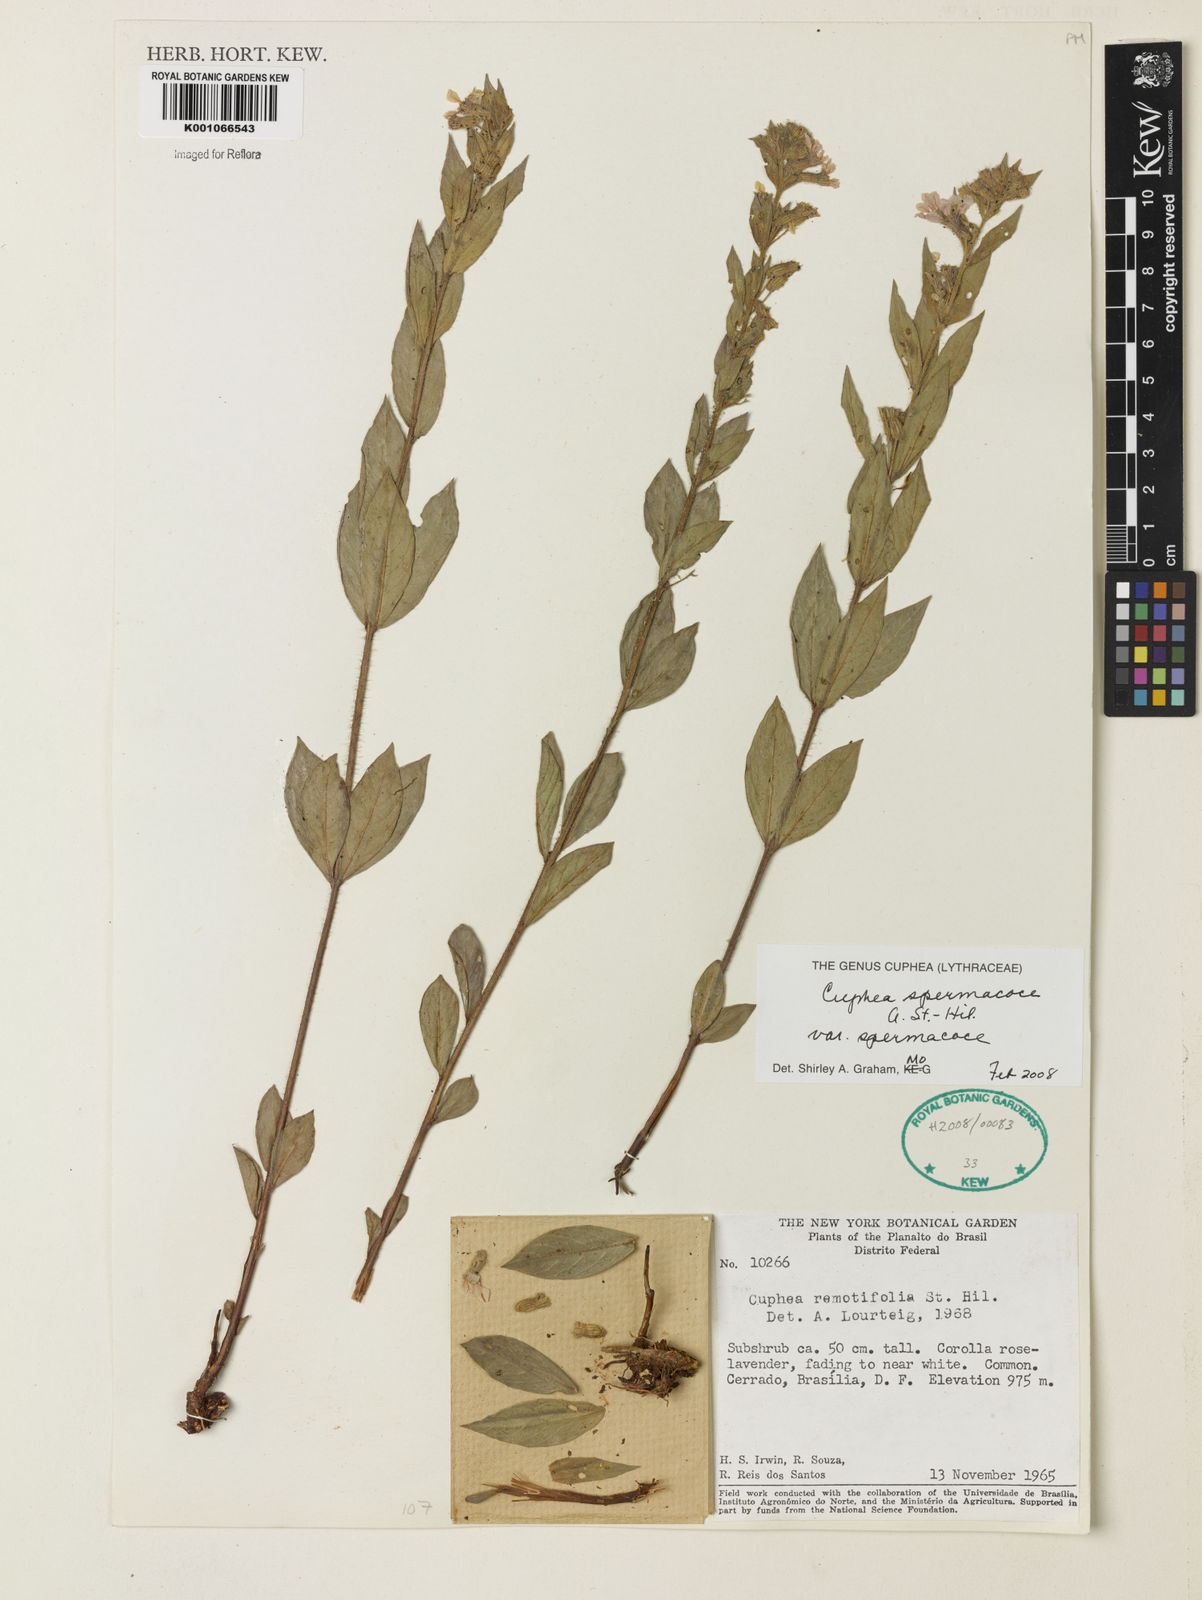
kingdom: Plantae
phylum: Tracheophyta
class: Magnoliopsida
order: Myrtales
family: Lythraceae
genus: Cuphea
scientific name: Cuphea spermacoce
